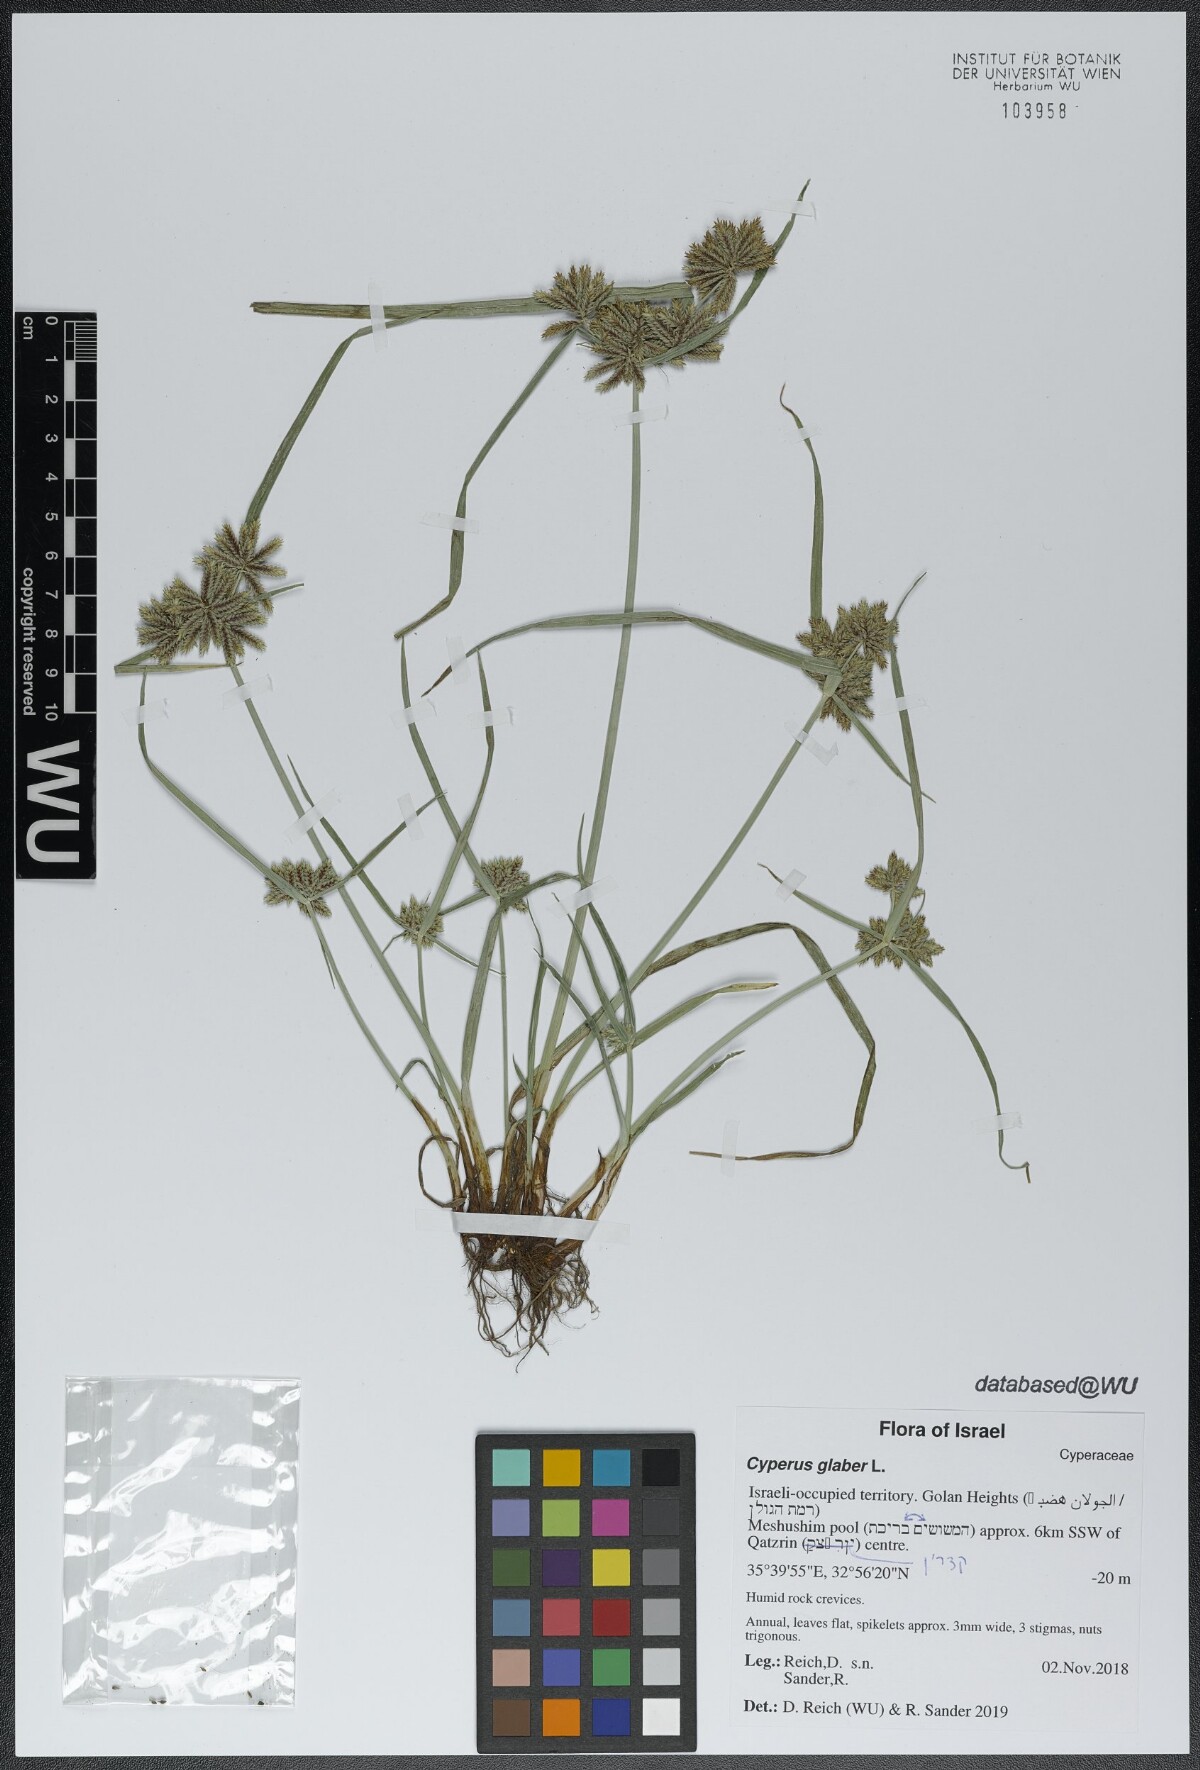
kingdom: Plantae
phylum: Tracheophyta
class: Liliopsida
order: Poales
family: Cyperaceae
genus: Cyperus
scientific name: Cyperus glaber
